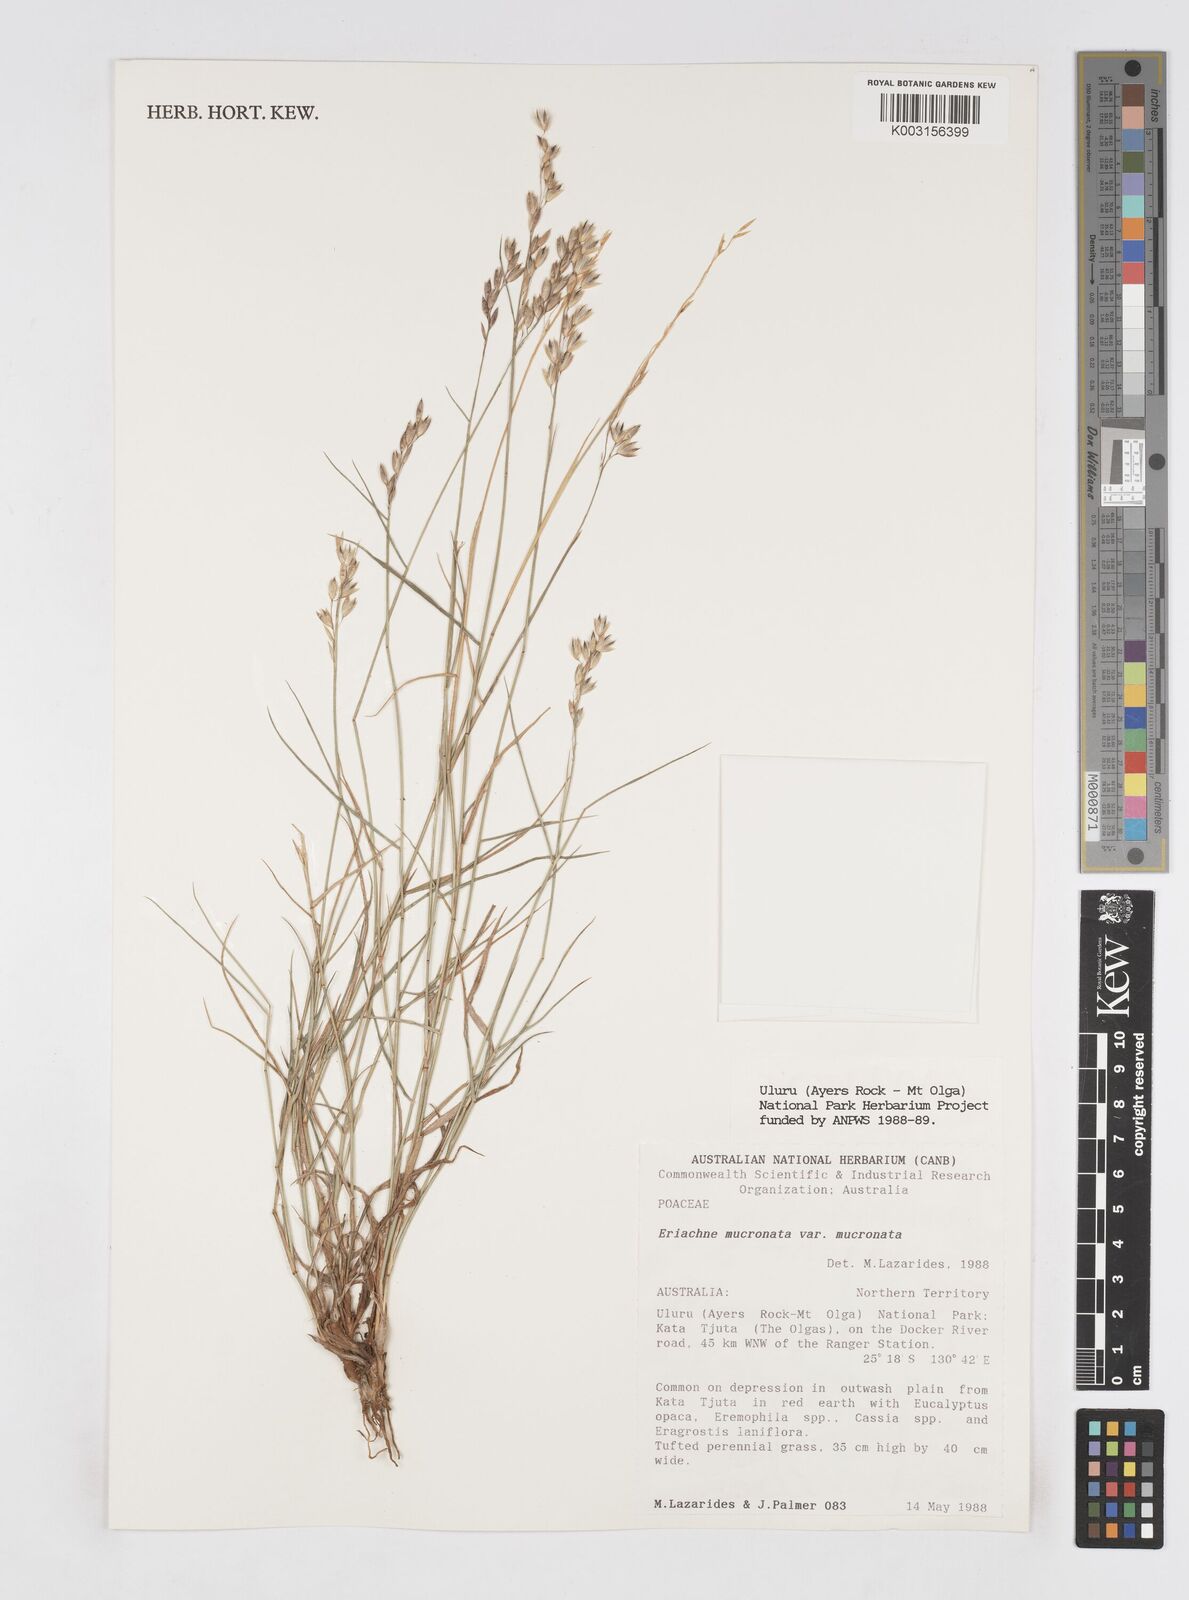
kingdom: Plantae
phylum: Tracheophyta
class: Liliopsida
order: Poales
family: Poaceae
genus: Eriachne
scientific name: Eriachne mucronata
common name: Mountain wanderrie grass
